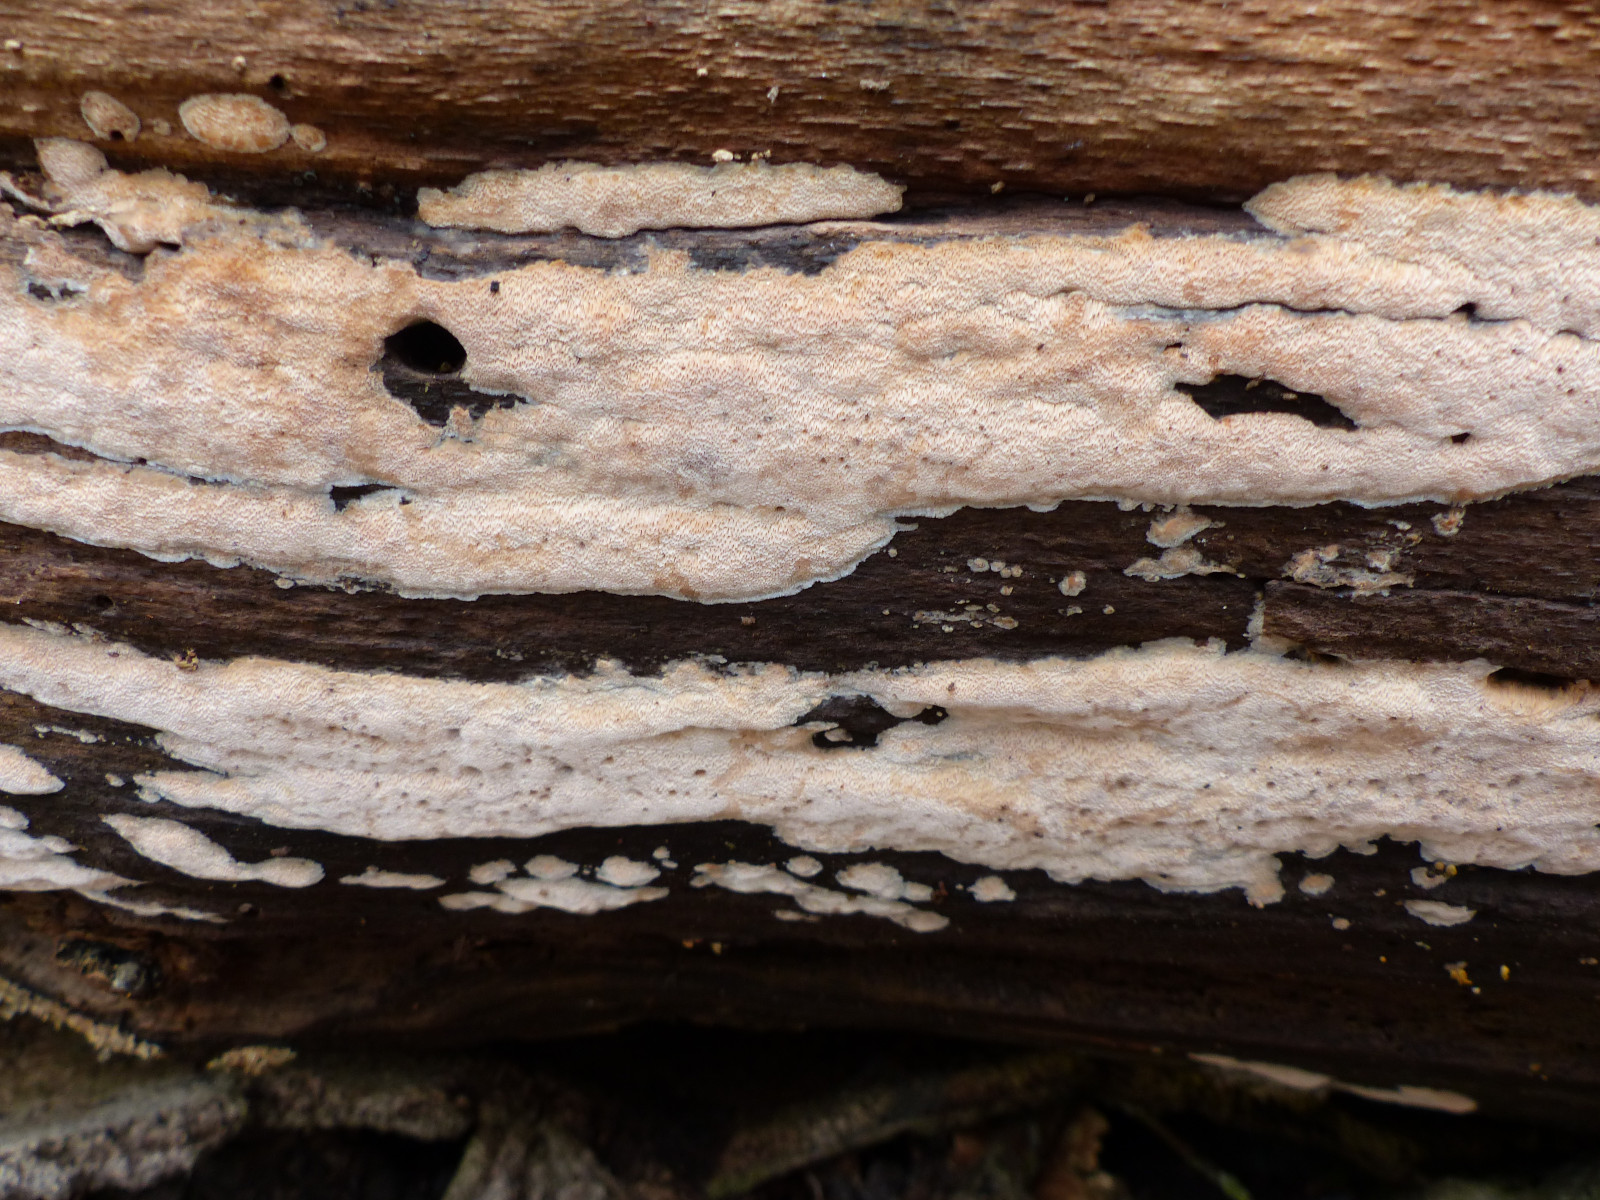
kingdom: Fungi
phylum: Basidiomycota
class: Agaricomycetes
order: Polyporales
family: Meruliaceae
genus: Mycoacia
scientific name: Mycoacia gilvescens
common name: rosa pastelporesvamp
